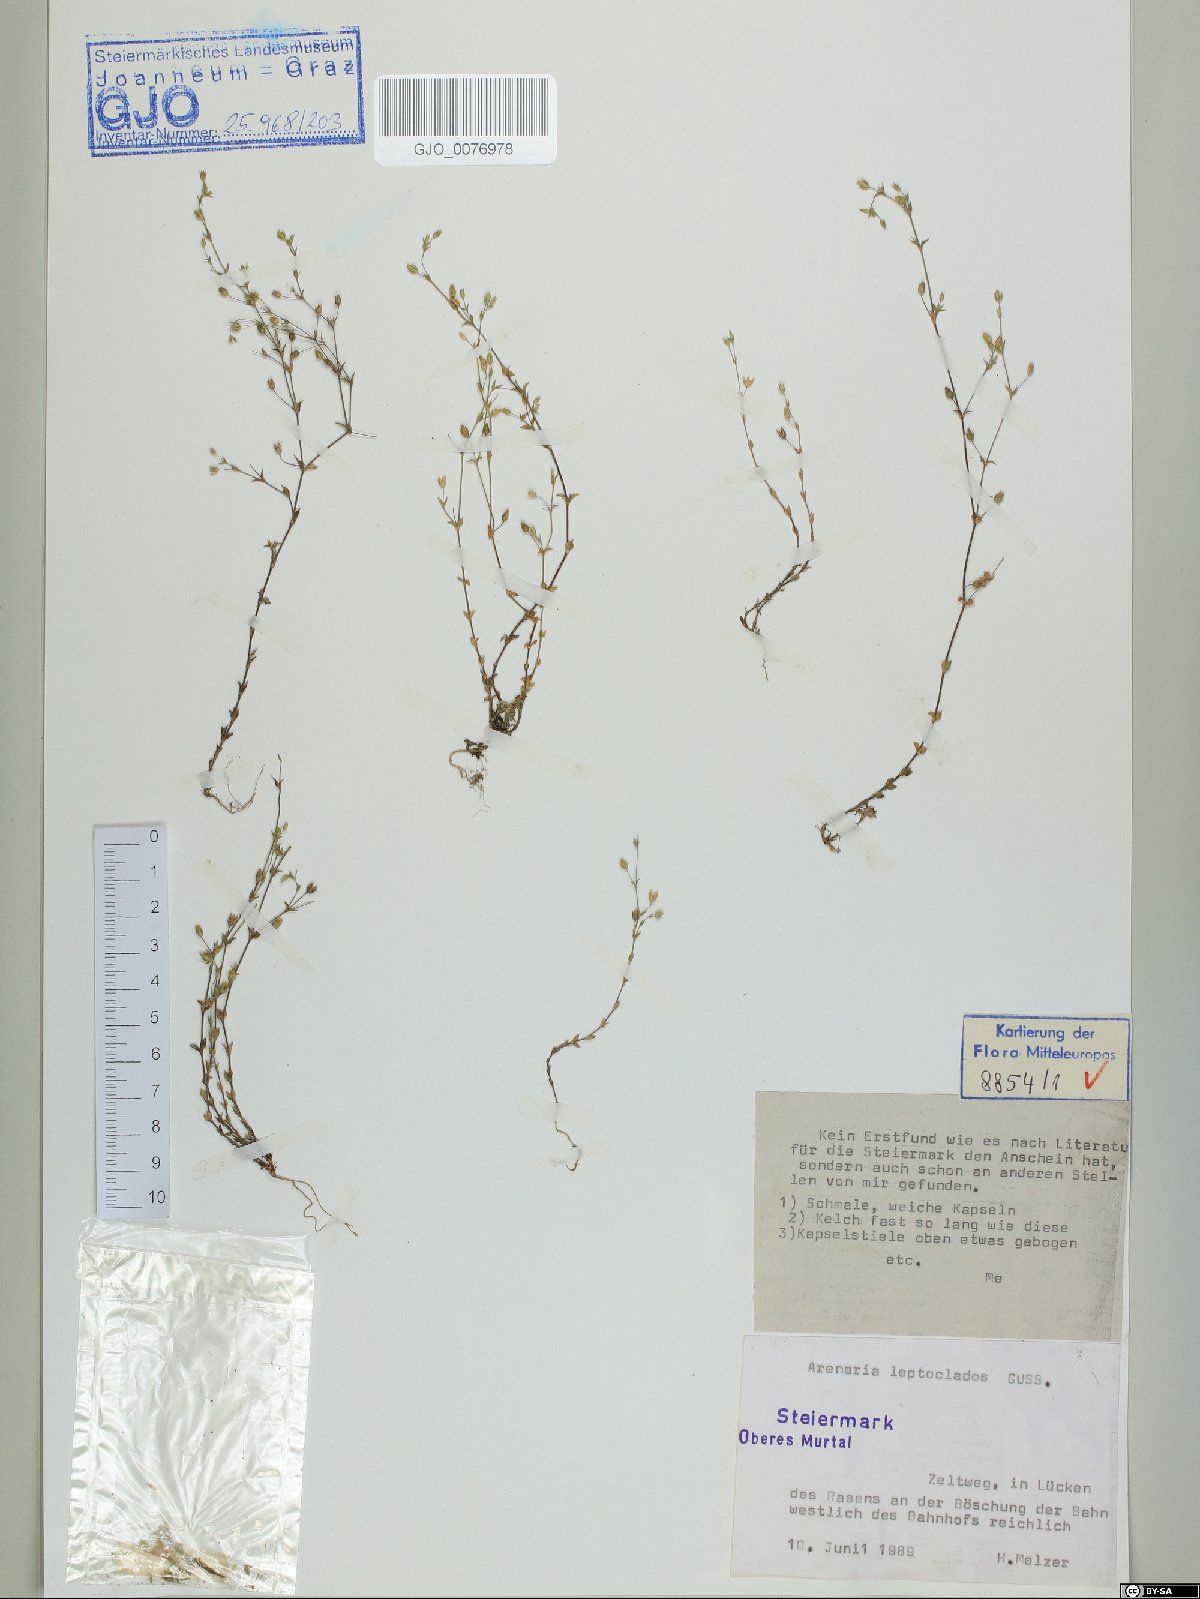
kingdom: Plantae
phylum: Tracheophyta
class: Magnoliopsida
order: Caryophyllales
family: Caryophyllaceae
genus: Arenaria
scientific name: Arenaria leptoclados
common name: Thyme-leaved sandwort
